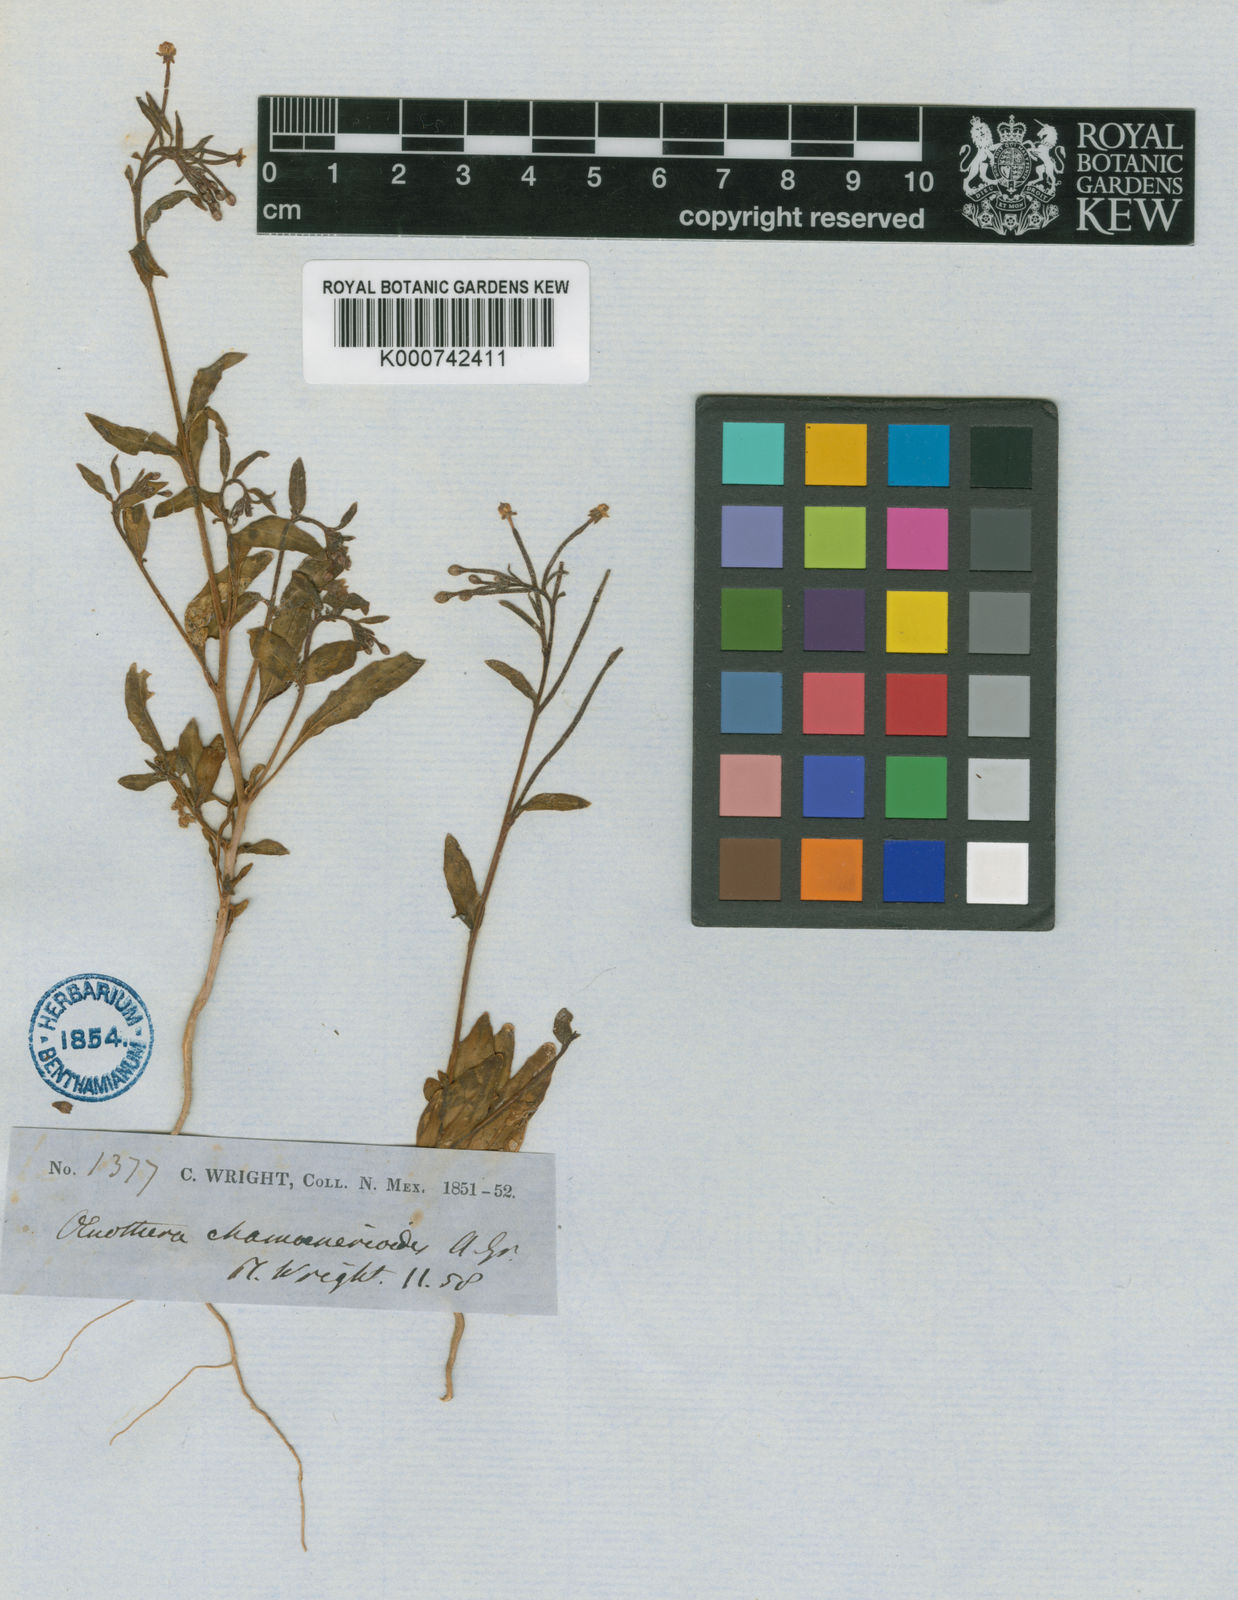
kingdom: Plantae
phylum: Tracheophyta
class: Magnoliopsida
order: Myrtales
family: Onagraceae
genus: Eremothera
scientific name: Eremothera chamaenerioides
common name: Longcapsule suncup
